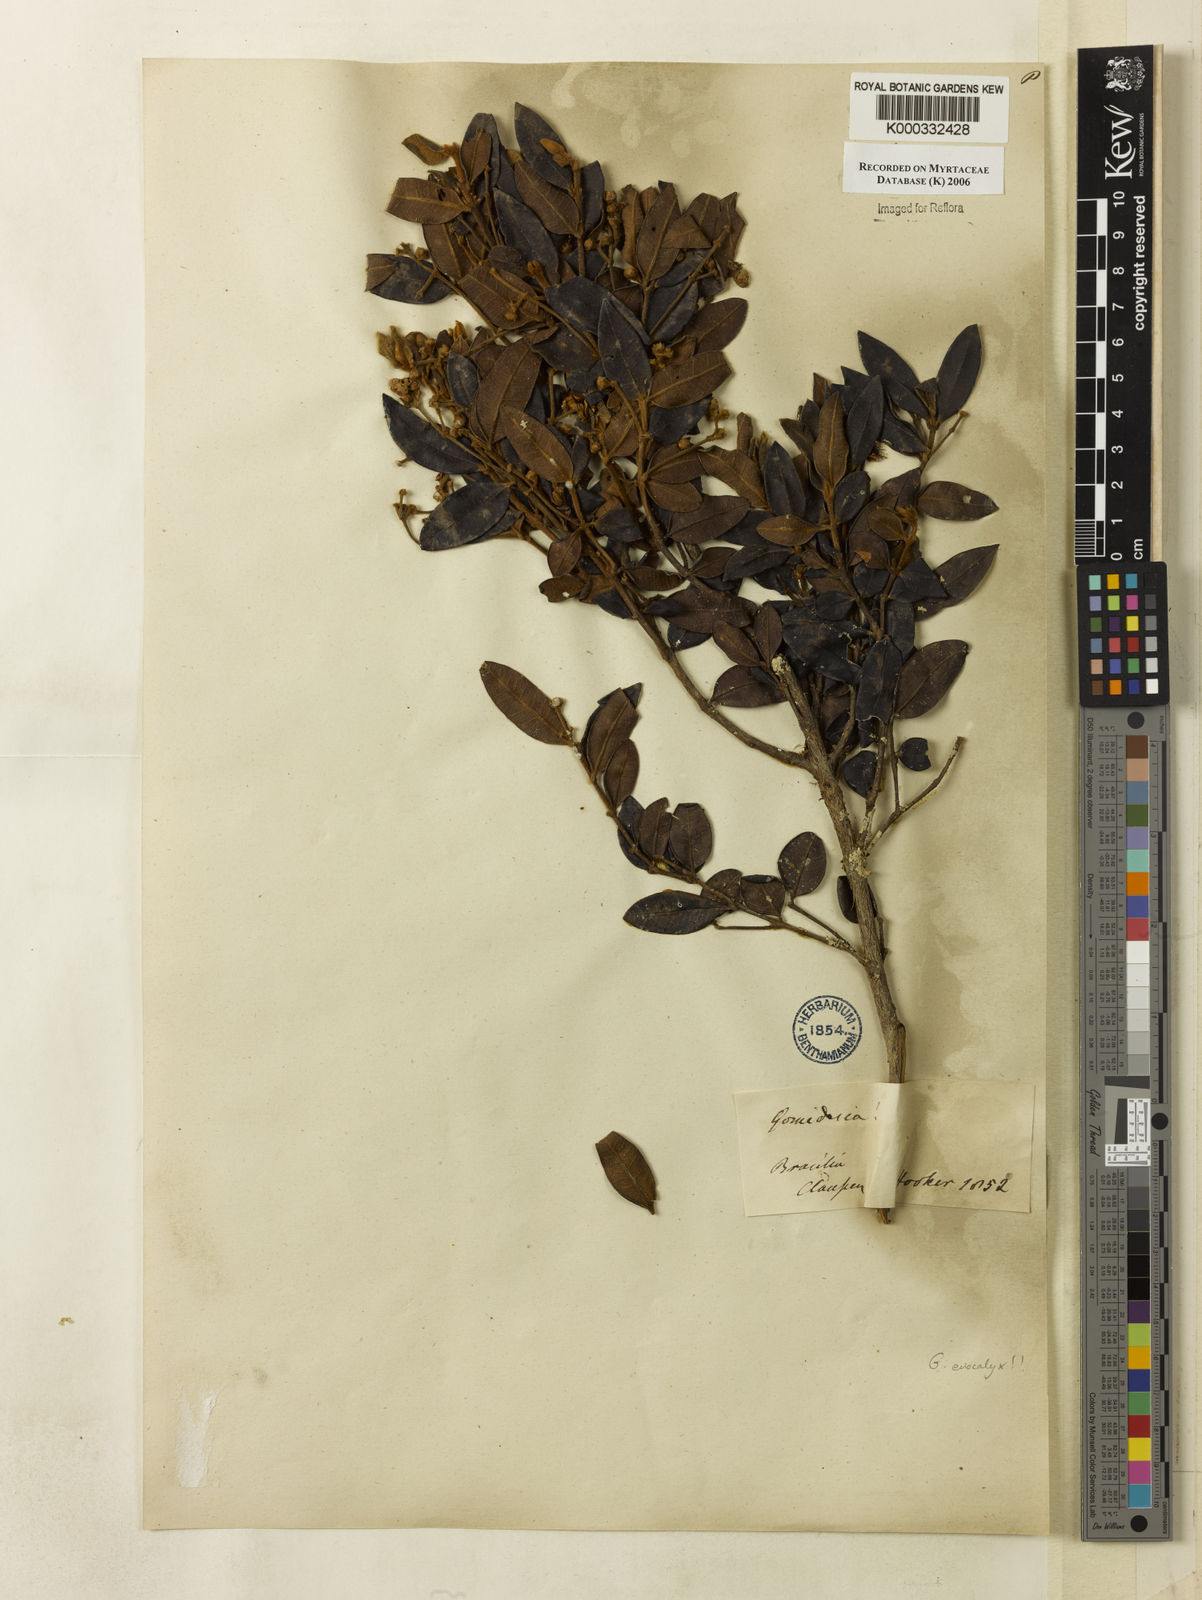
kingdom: Plantae
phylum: Tracheophyta
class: Magnoliopsida
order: Myrtales
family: Myrtaceae
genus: Myrcia
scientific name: Myrcia eriocalyx
